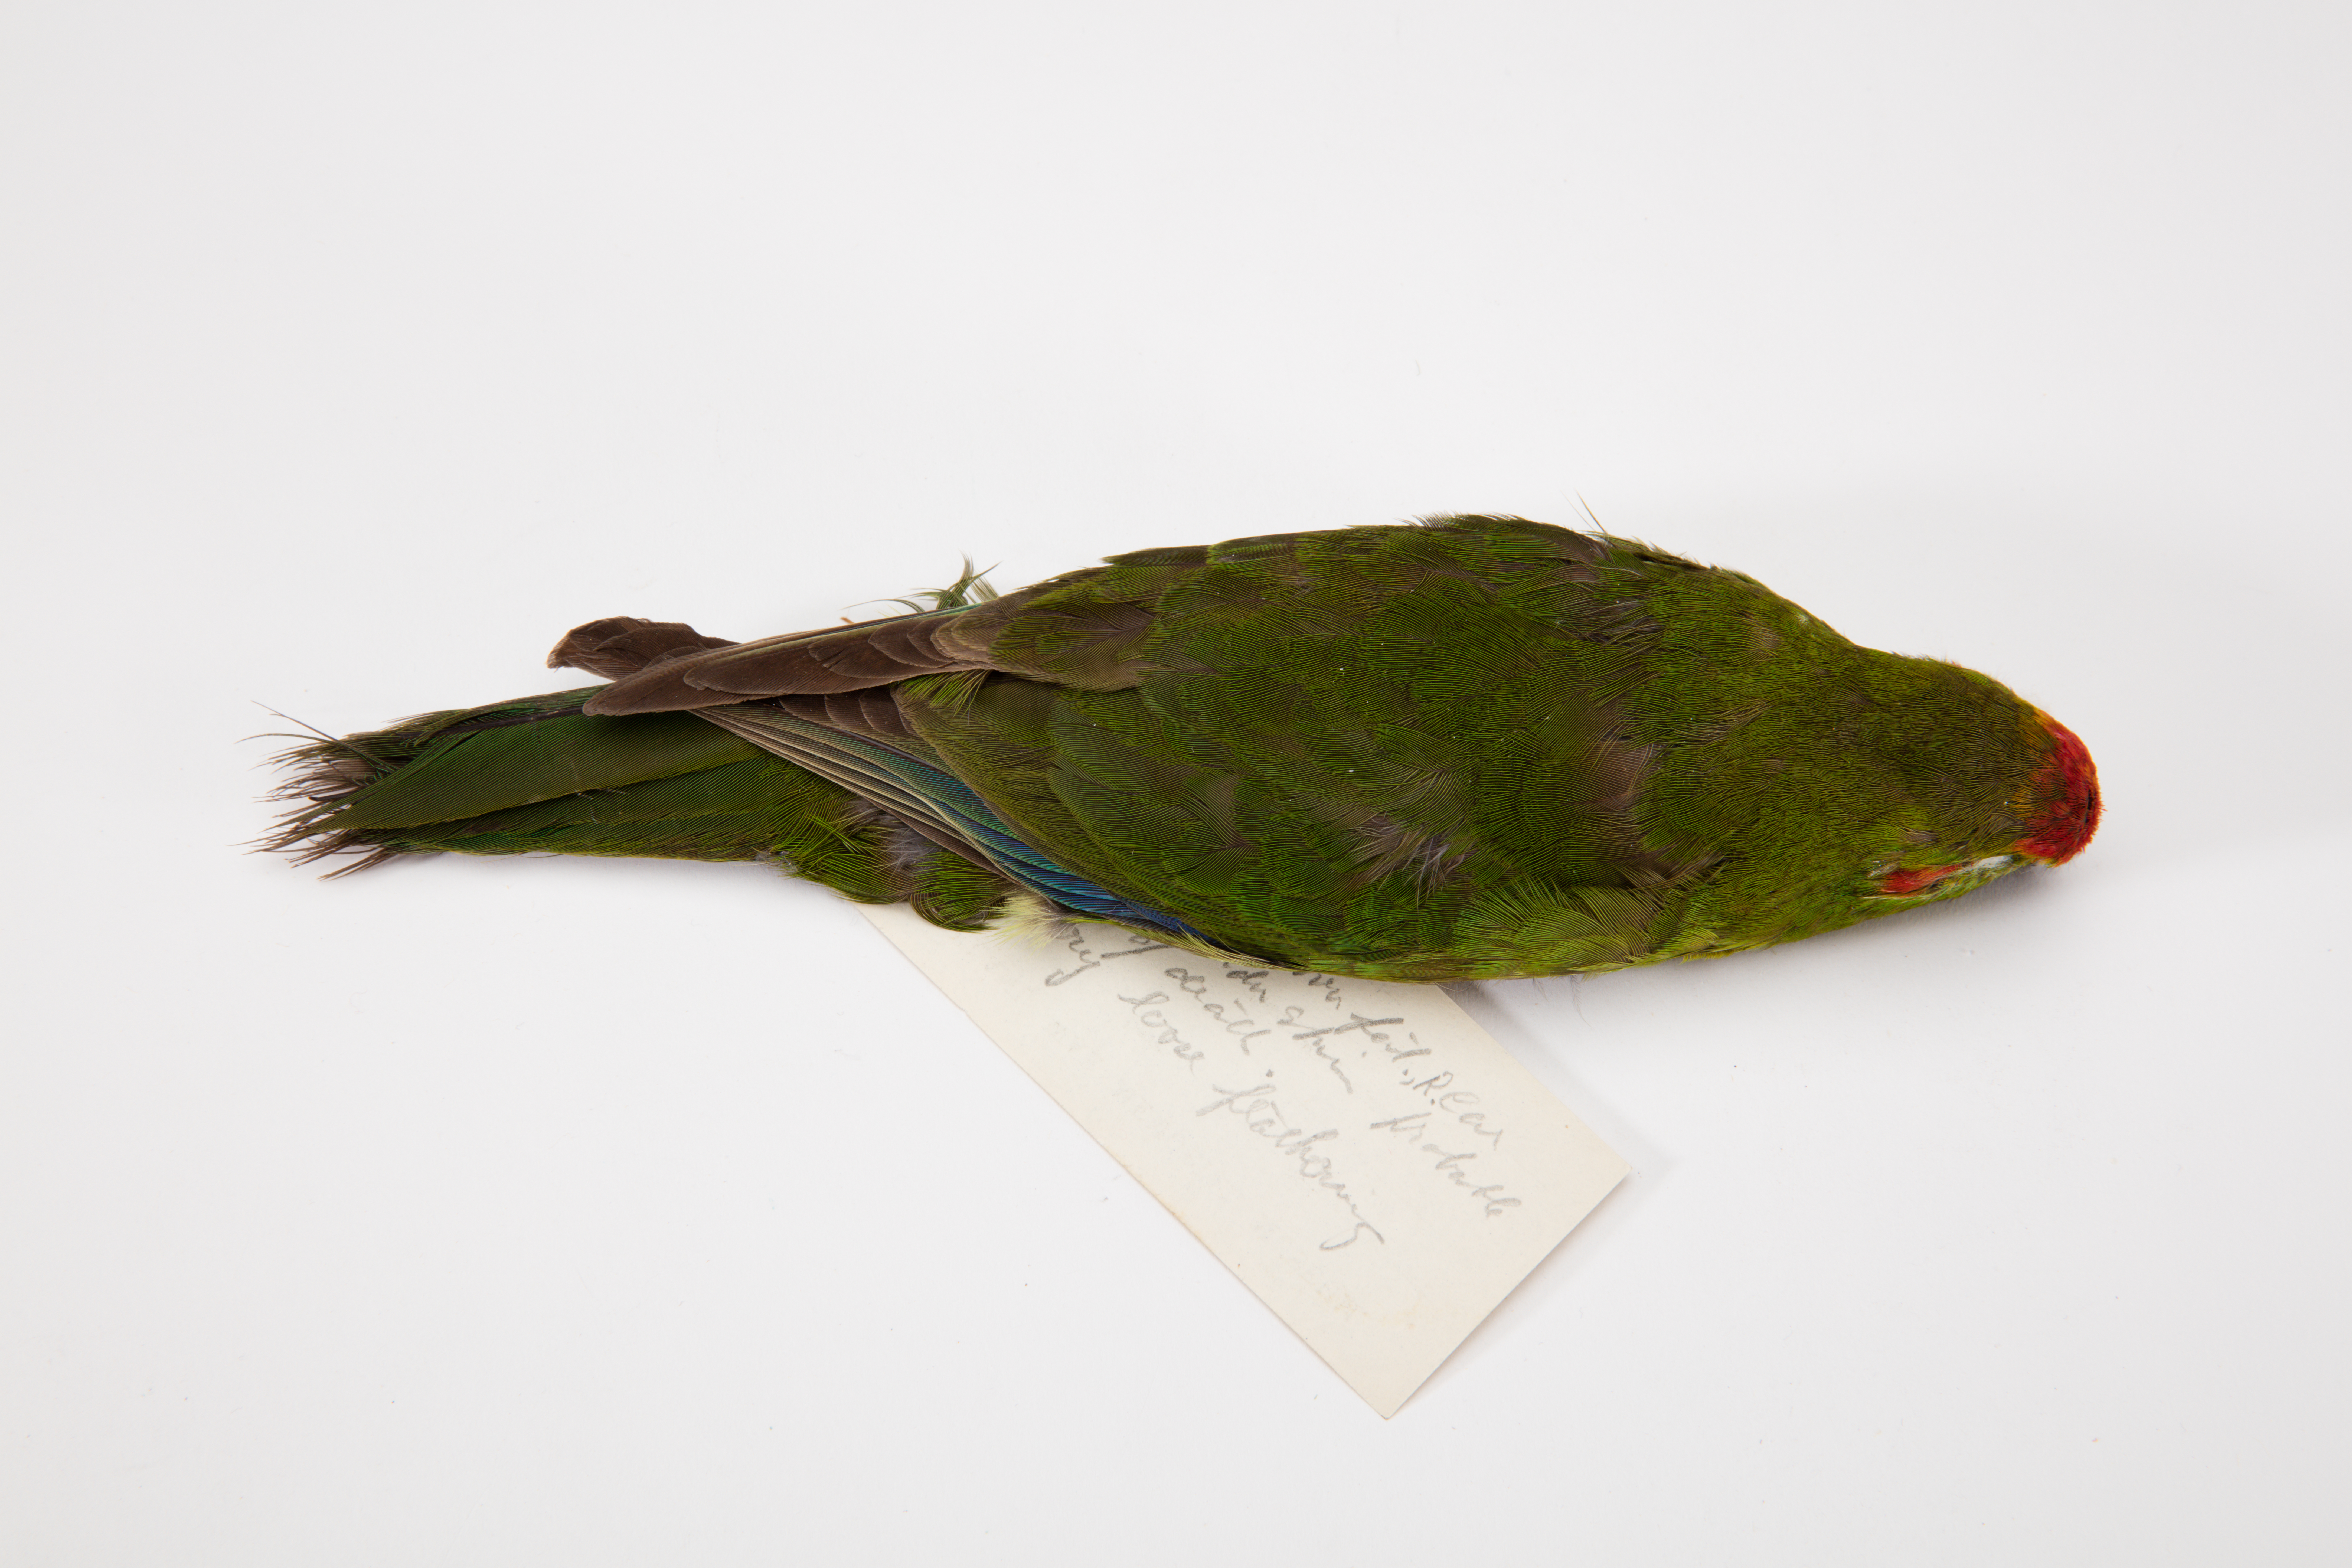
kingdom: Animalia
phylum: Chordata
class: Aves
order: Psittaciformes
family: Psittacidae
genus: Cyanoramphus
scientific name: Cyanoramphus novaezelandiae
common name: Red-fronted parakeet
